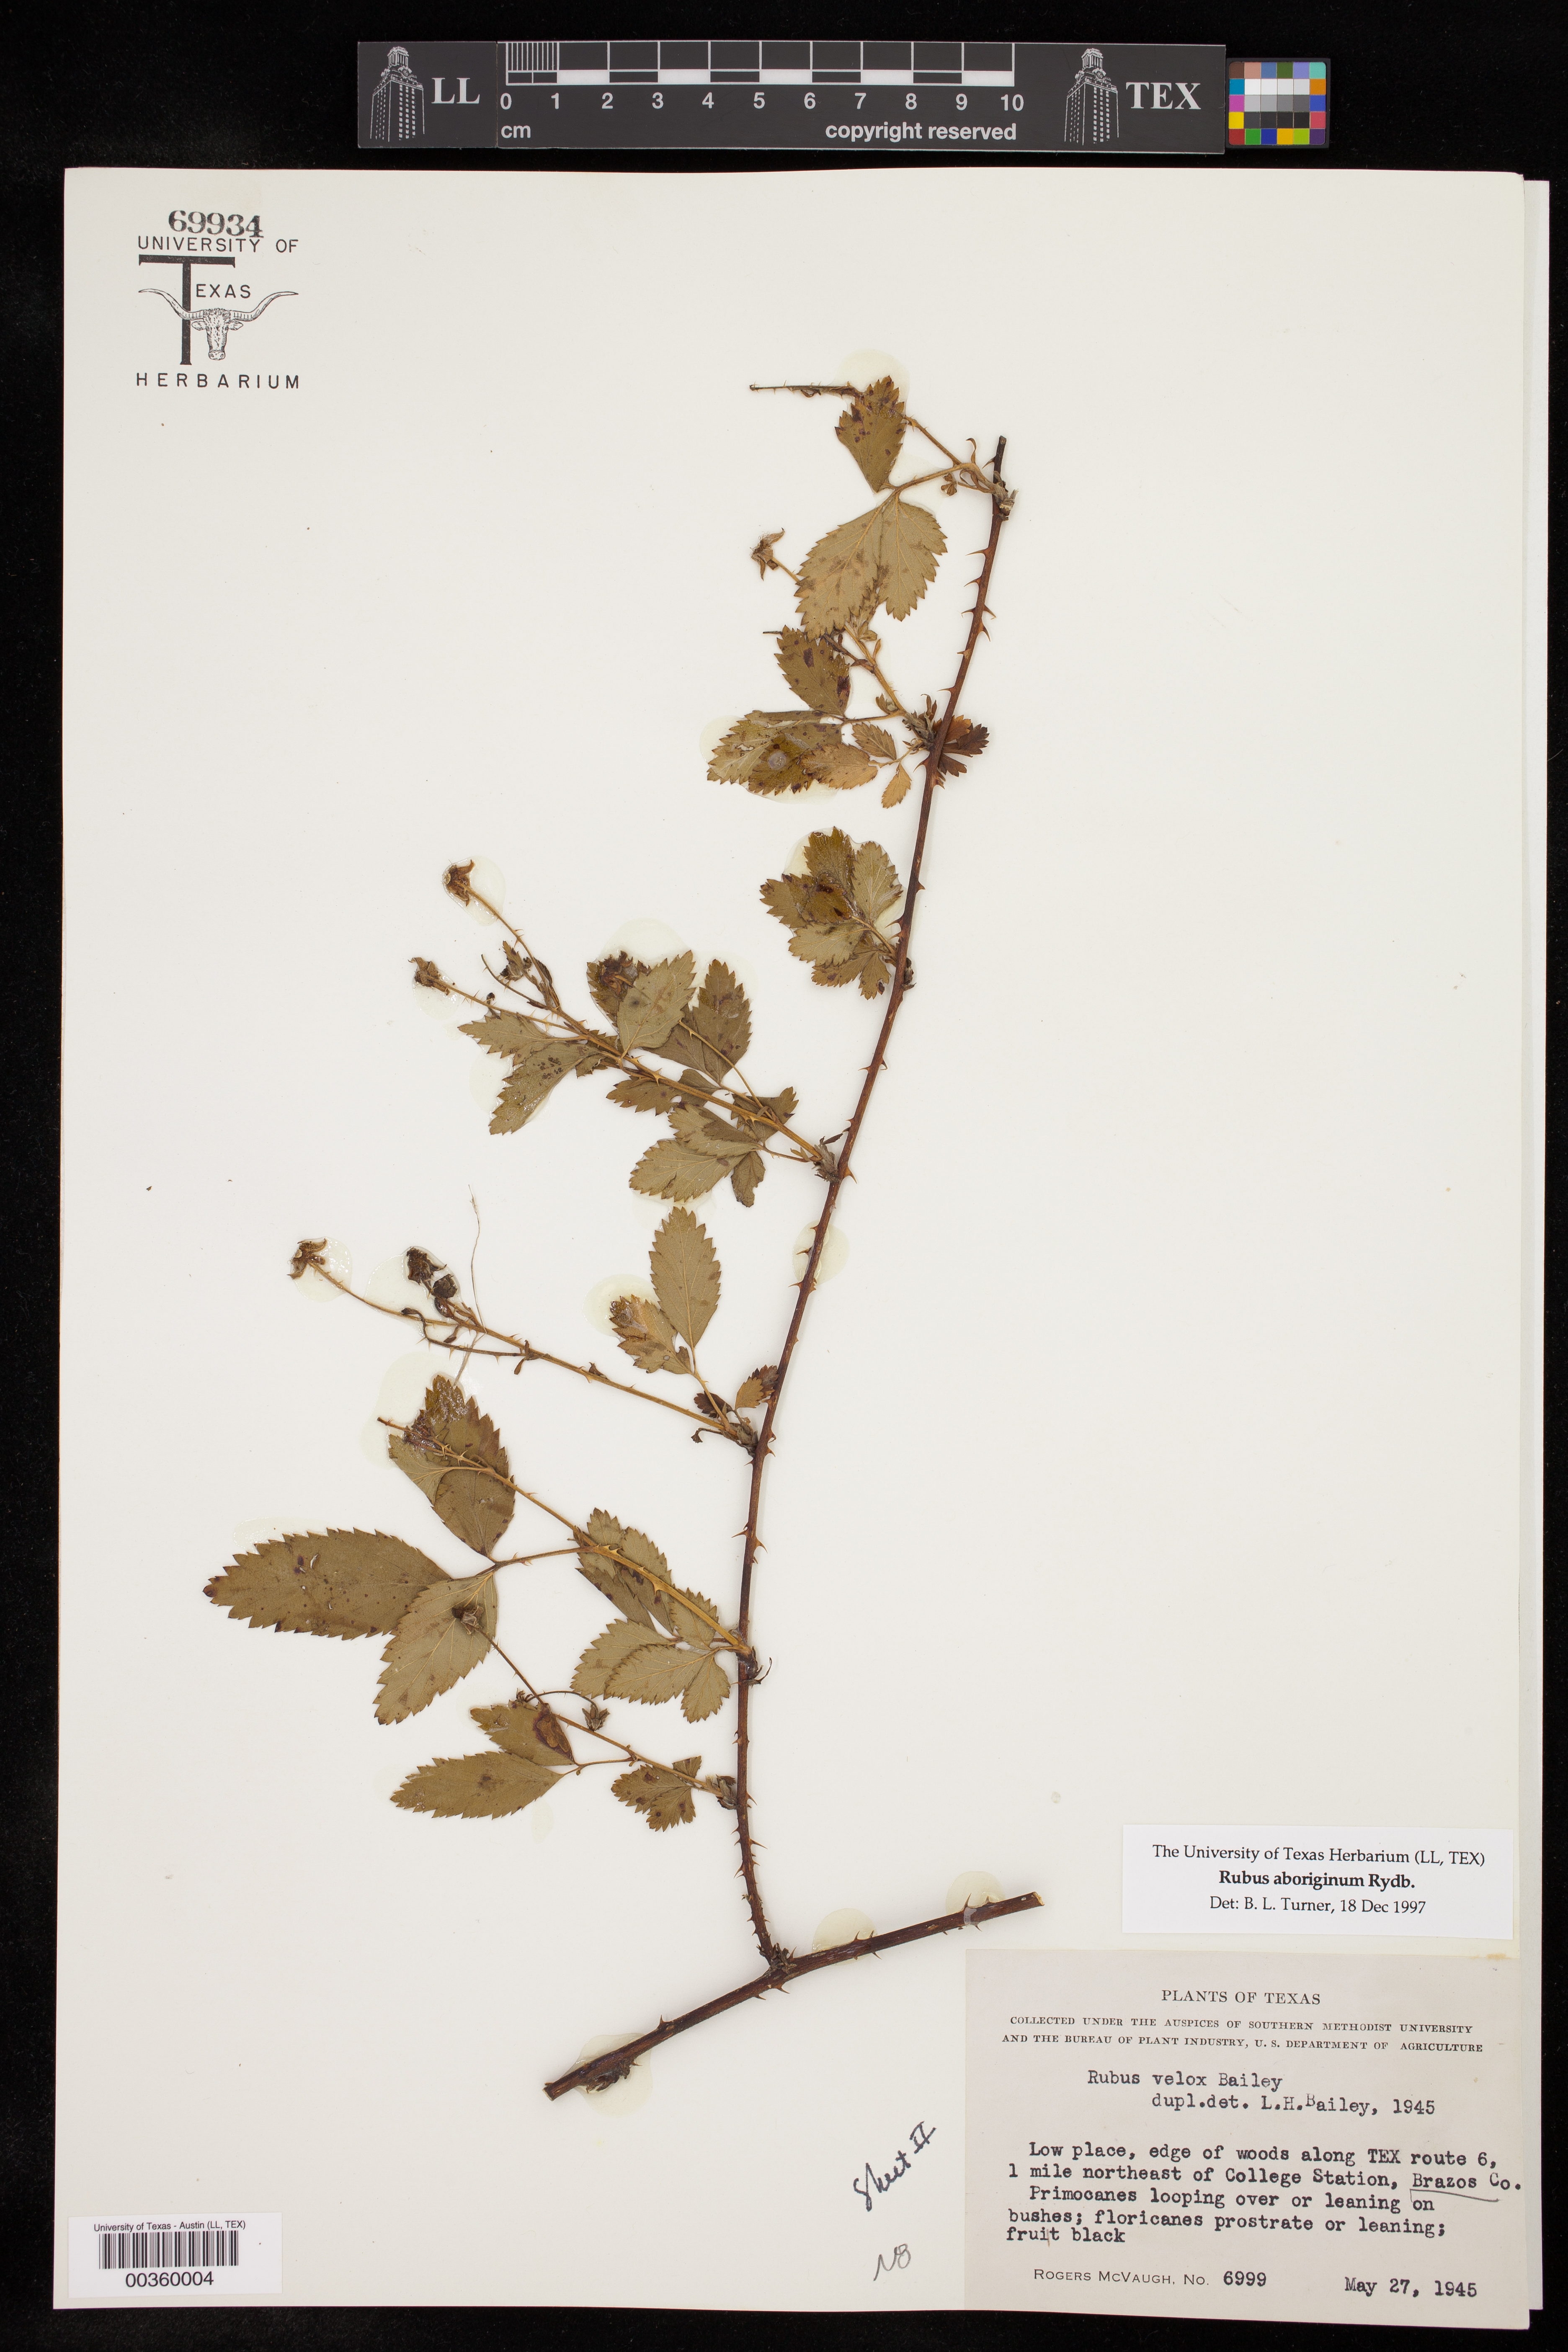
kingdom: Plantae
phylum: Tracheophyta
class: Magnoliopsida
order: Rosales
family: Rosaceae
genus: Rubus
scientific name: Rubus aboriginum
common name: Mayes dewberry
